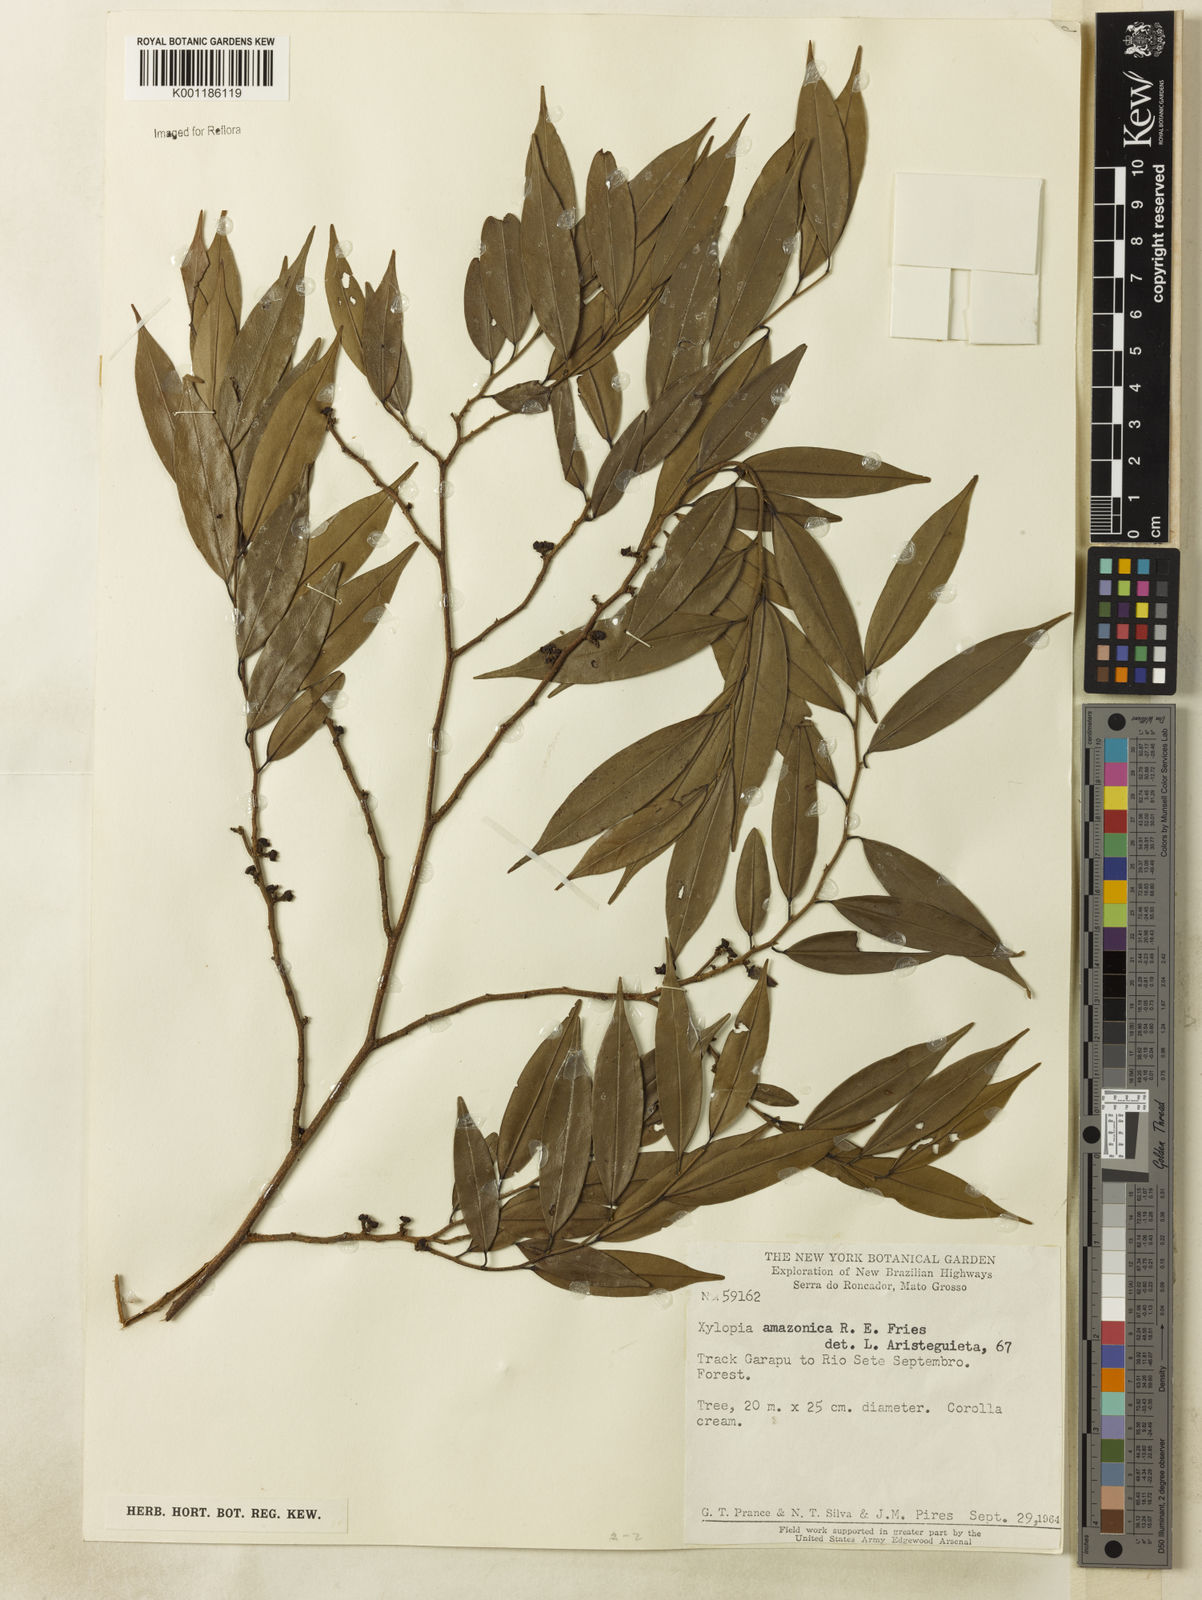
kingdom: Plantae
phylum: Tracheophyta
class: Magnoliopsida
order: Magnoliales
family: Annonaceae
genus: Xylopia
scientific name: Xylopia amazonica
